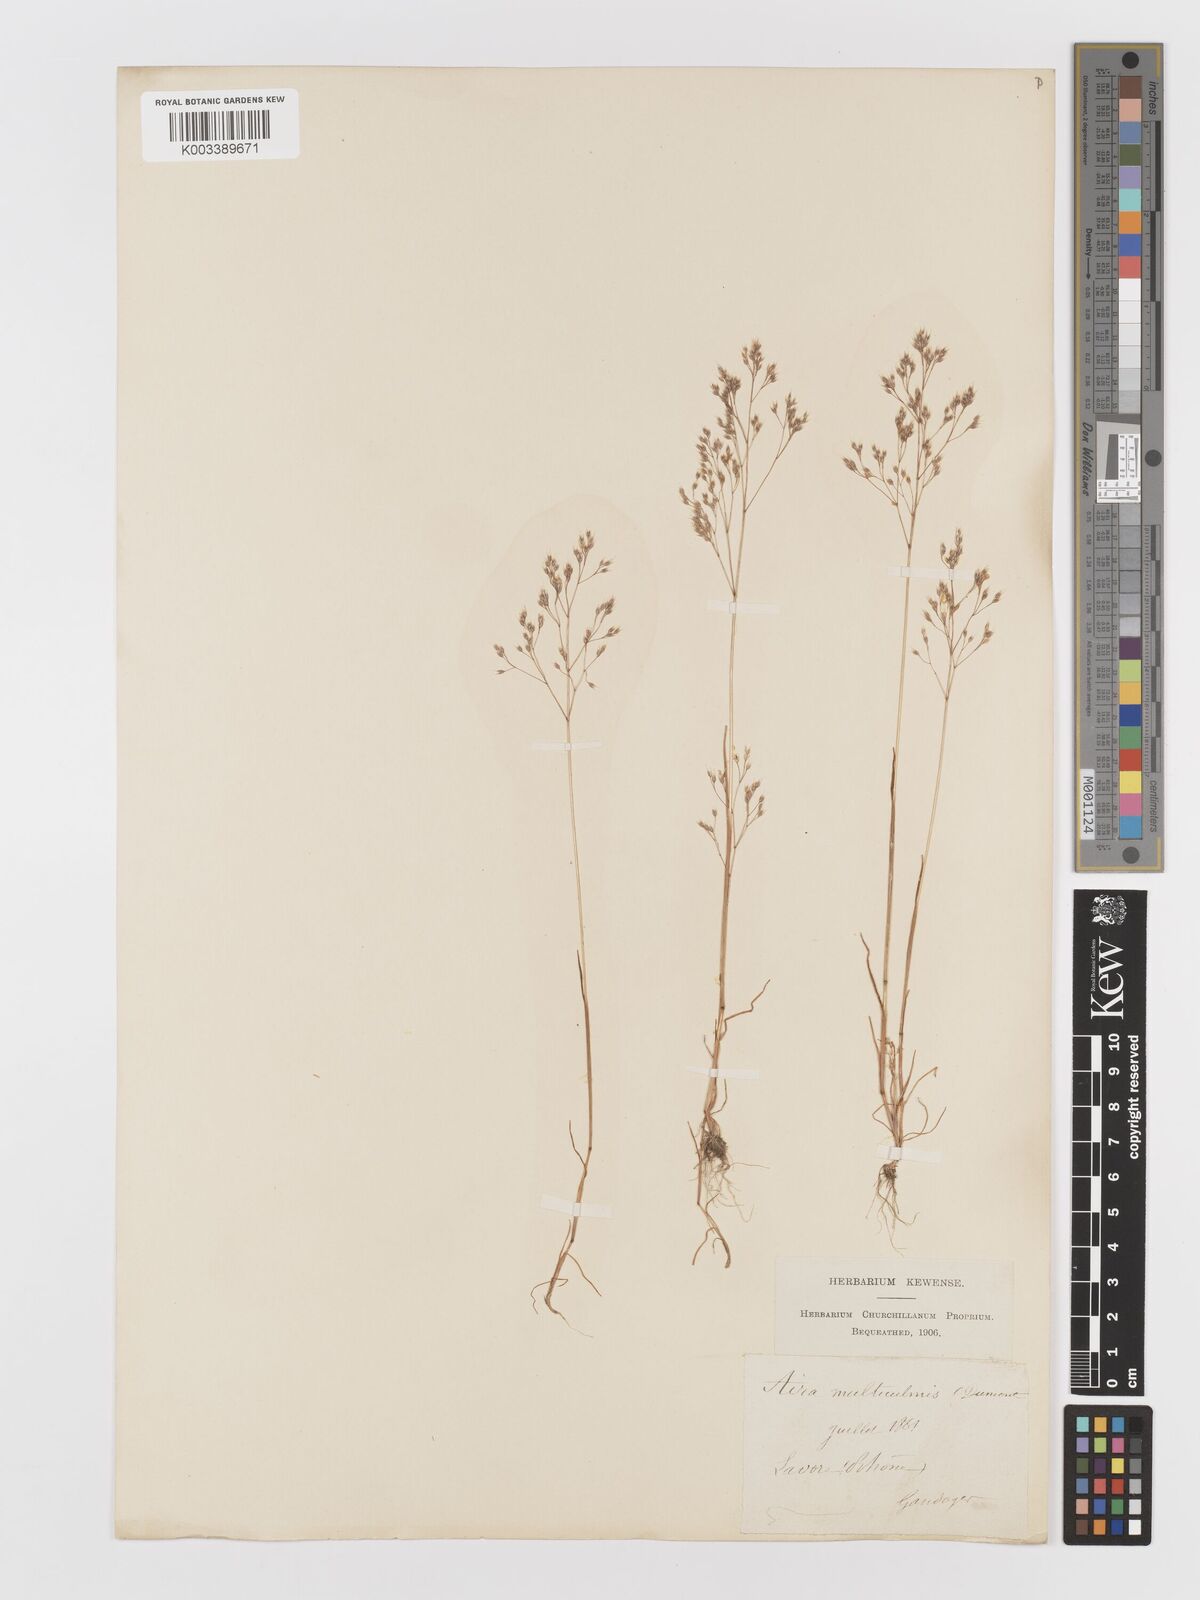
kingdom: Plantae
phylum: Tracheophyta
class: Liliopsida
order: Poales
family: Poaceae
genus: Aira
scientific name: Aira caryophyllea
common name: Silver hairgrass
